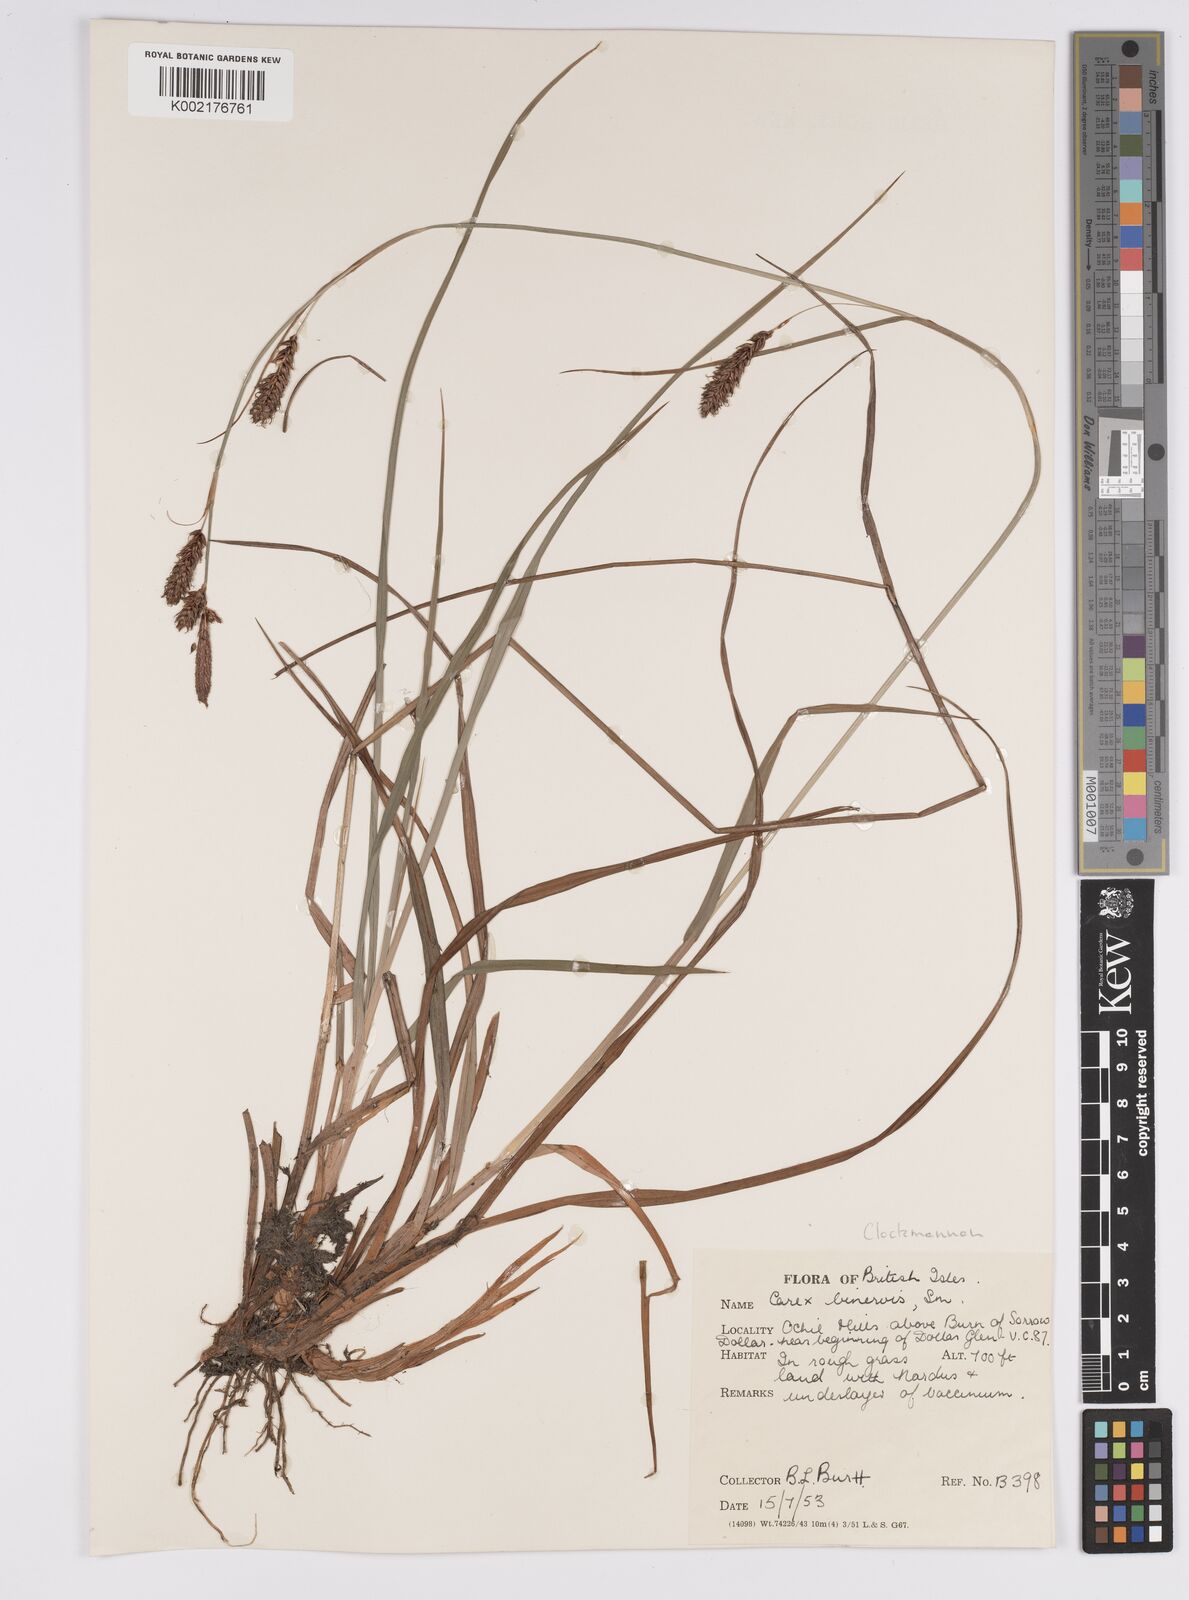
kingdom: Plantae
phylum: Tracheophyta
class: Liliopsida
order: Poales
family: Cyperaceae
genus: Carex
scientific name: Carex binervis
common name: Green-ribbed sedge
